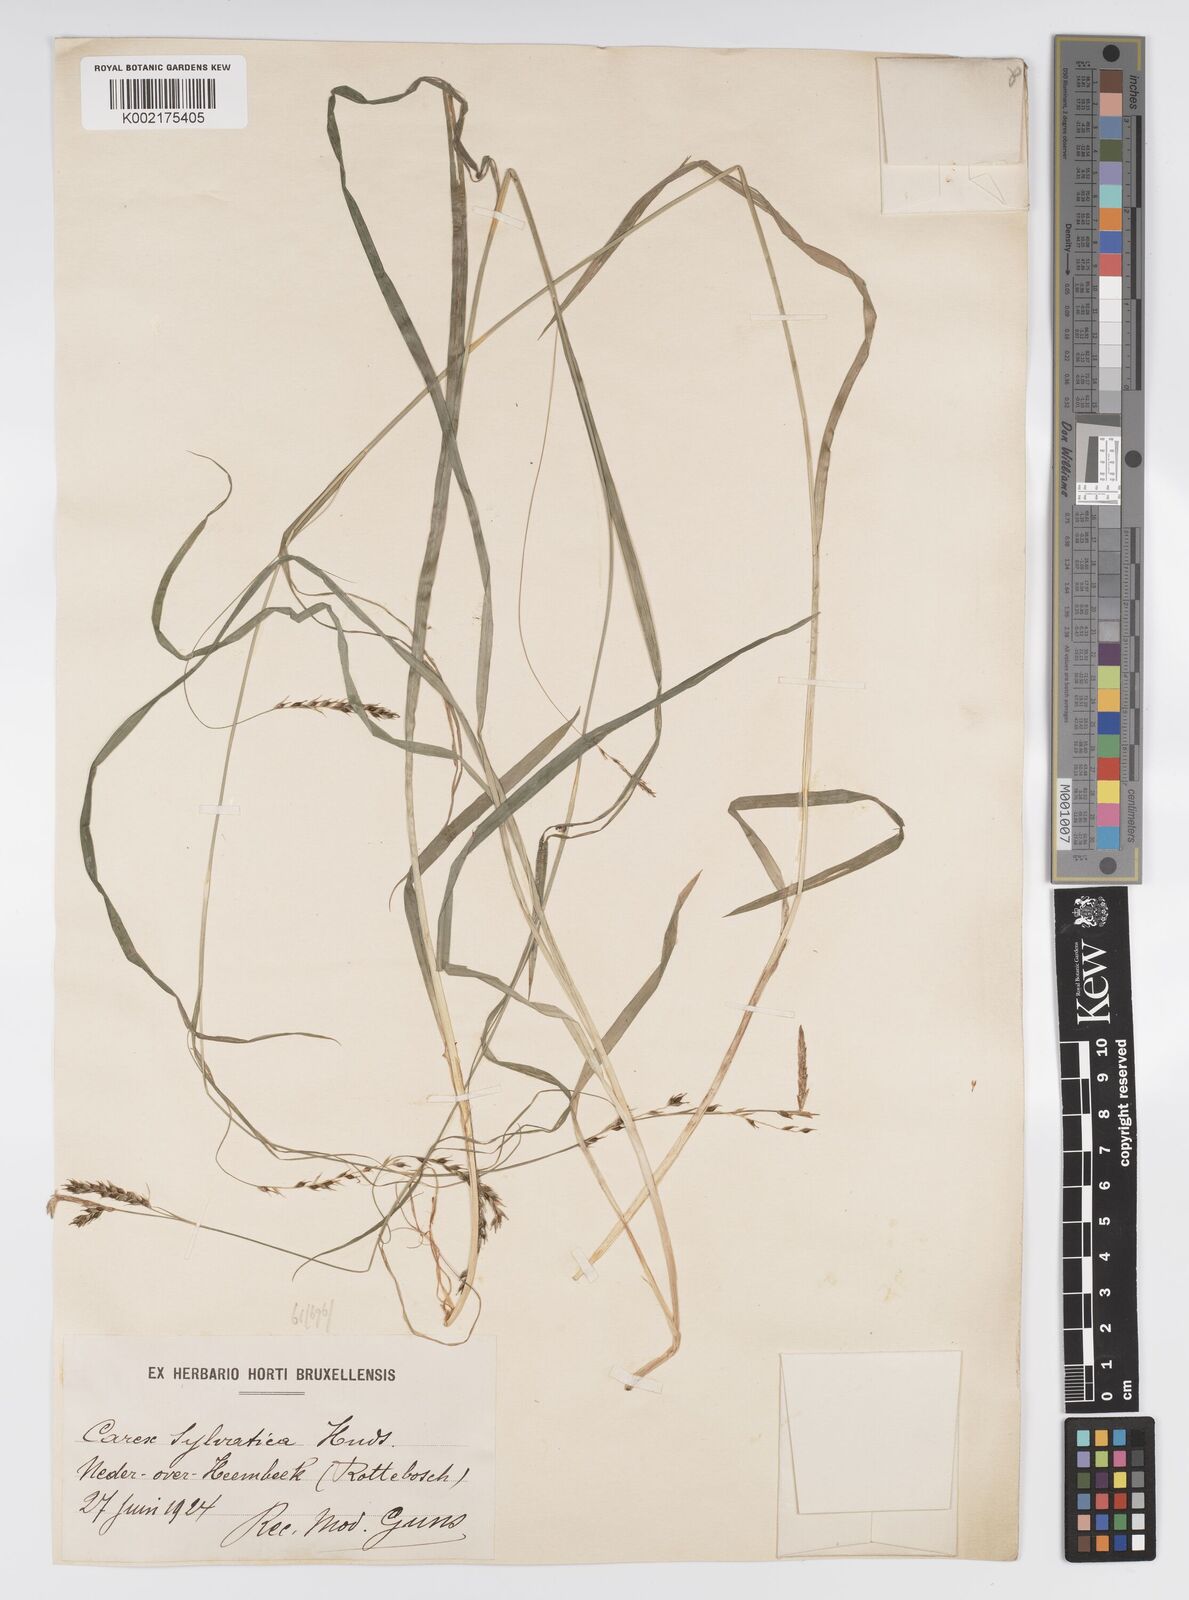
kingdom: Plantae
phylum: Tracheophyta
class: Liliopsida
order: Poales
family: Cyperaceae
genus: Carex
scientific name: Carex sylvatica
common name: Wood-sedge
